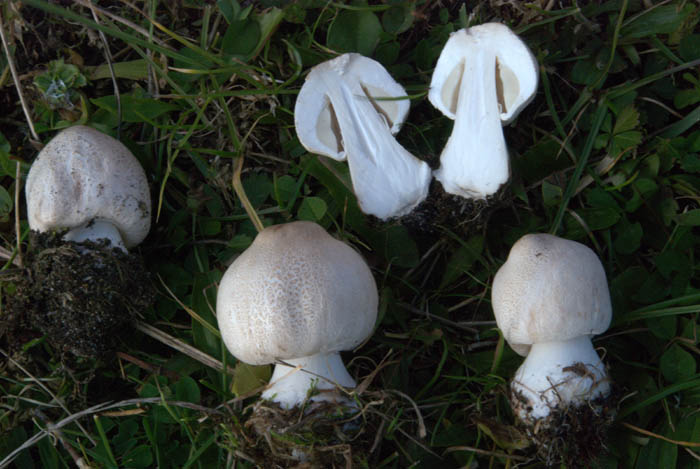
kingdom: Fungi
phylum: Basidiomycota
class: Agaricomycetes
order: Agaricales
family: Agaricaceae
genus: Leucoagaricus
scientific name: Leucoagaricus leucothites
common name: rosabladet silkehat
